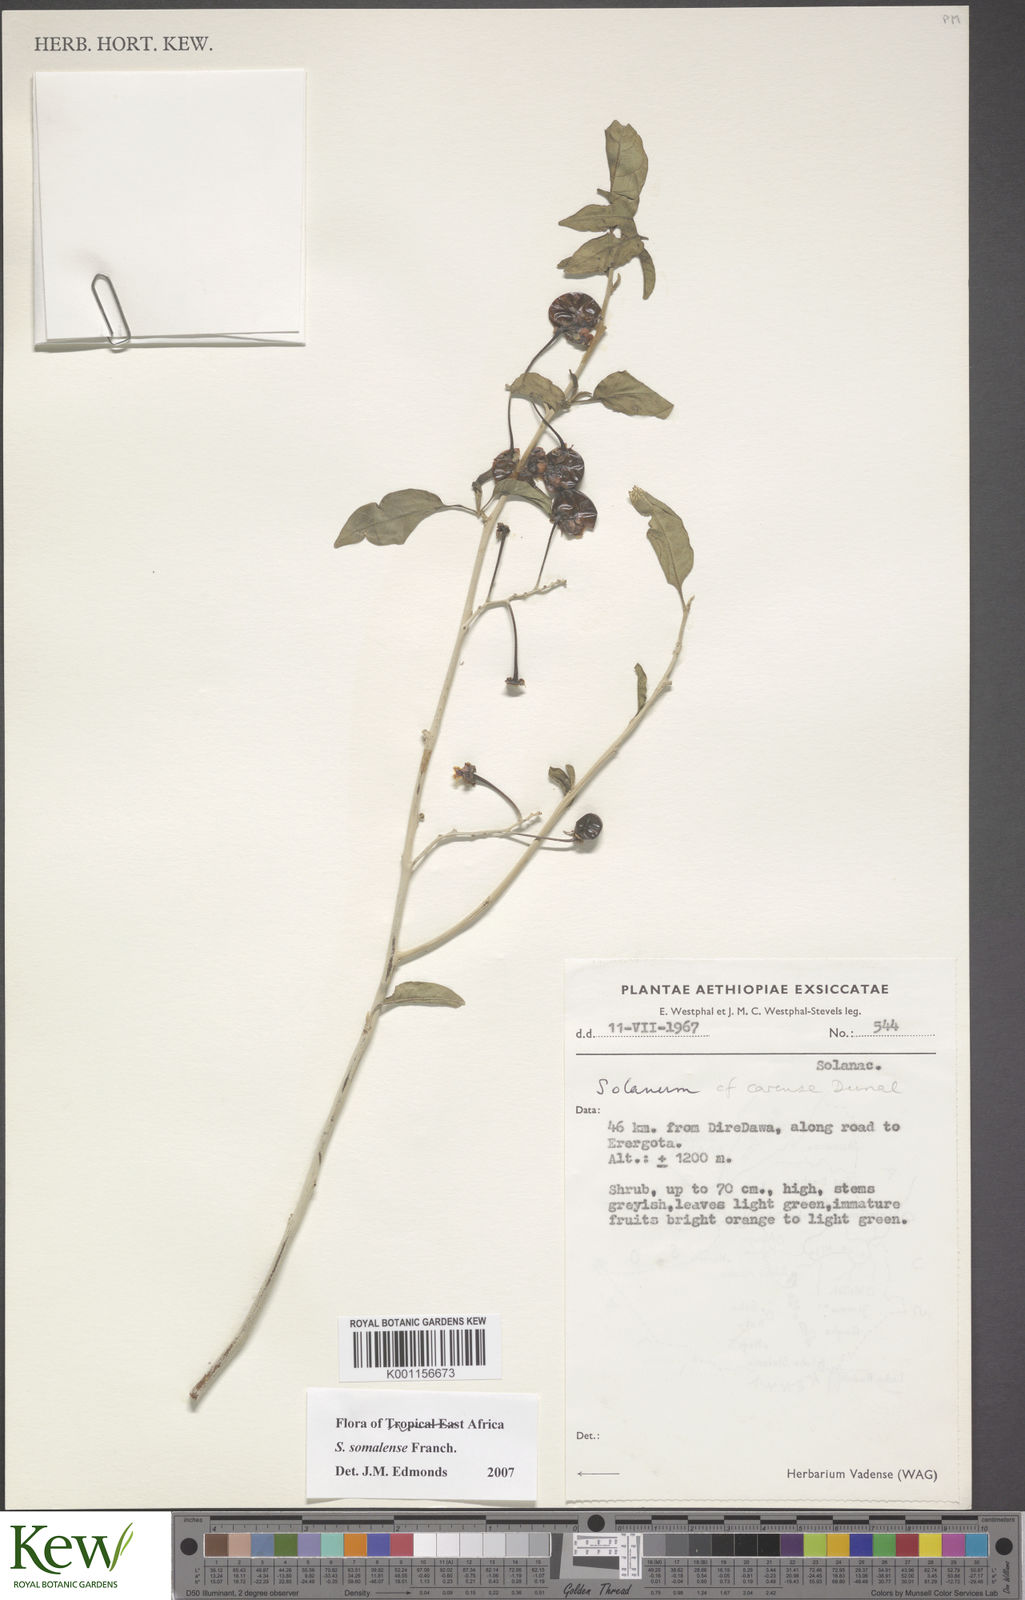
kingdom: Plantae
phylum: Tracheophyta
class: Magnoliopsida
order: Solanales
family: Solanaceae
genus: Solanum
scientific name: Solanum somalense
